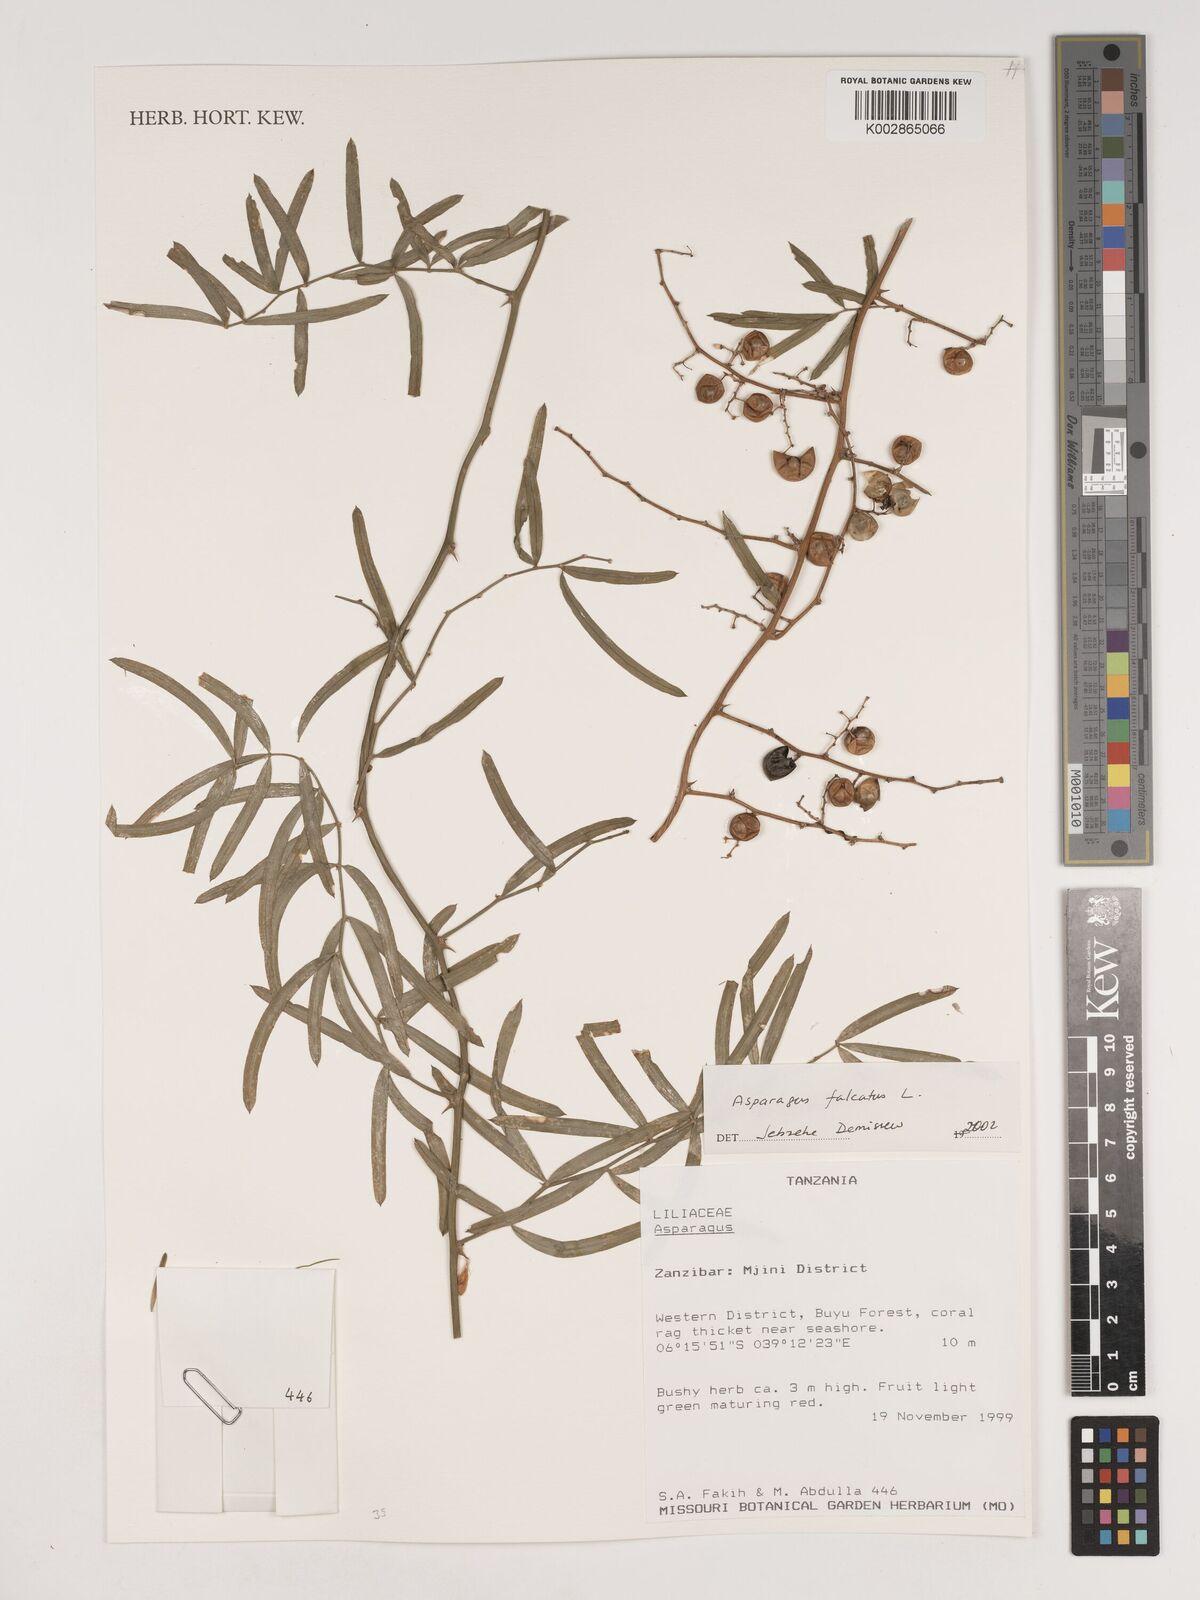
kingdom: Plantae
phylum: Tracheophyta
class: Liliopsida
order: Asparagales
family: Asparagaceae
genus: Asparagus
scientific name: Asparagus falcatus
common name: Asparagus
